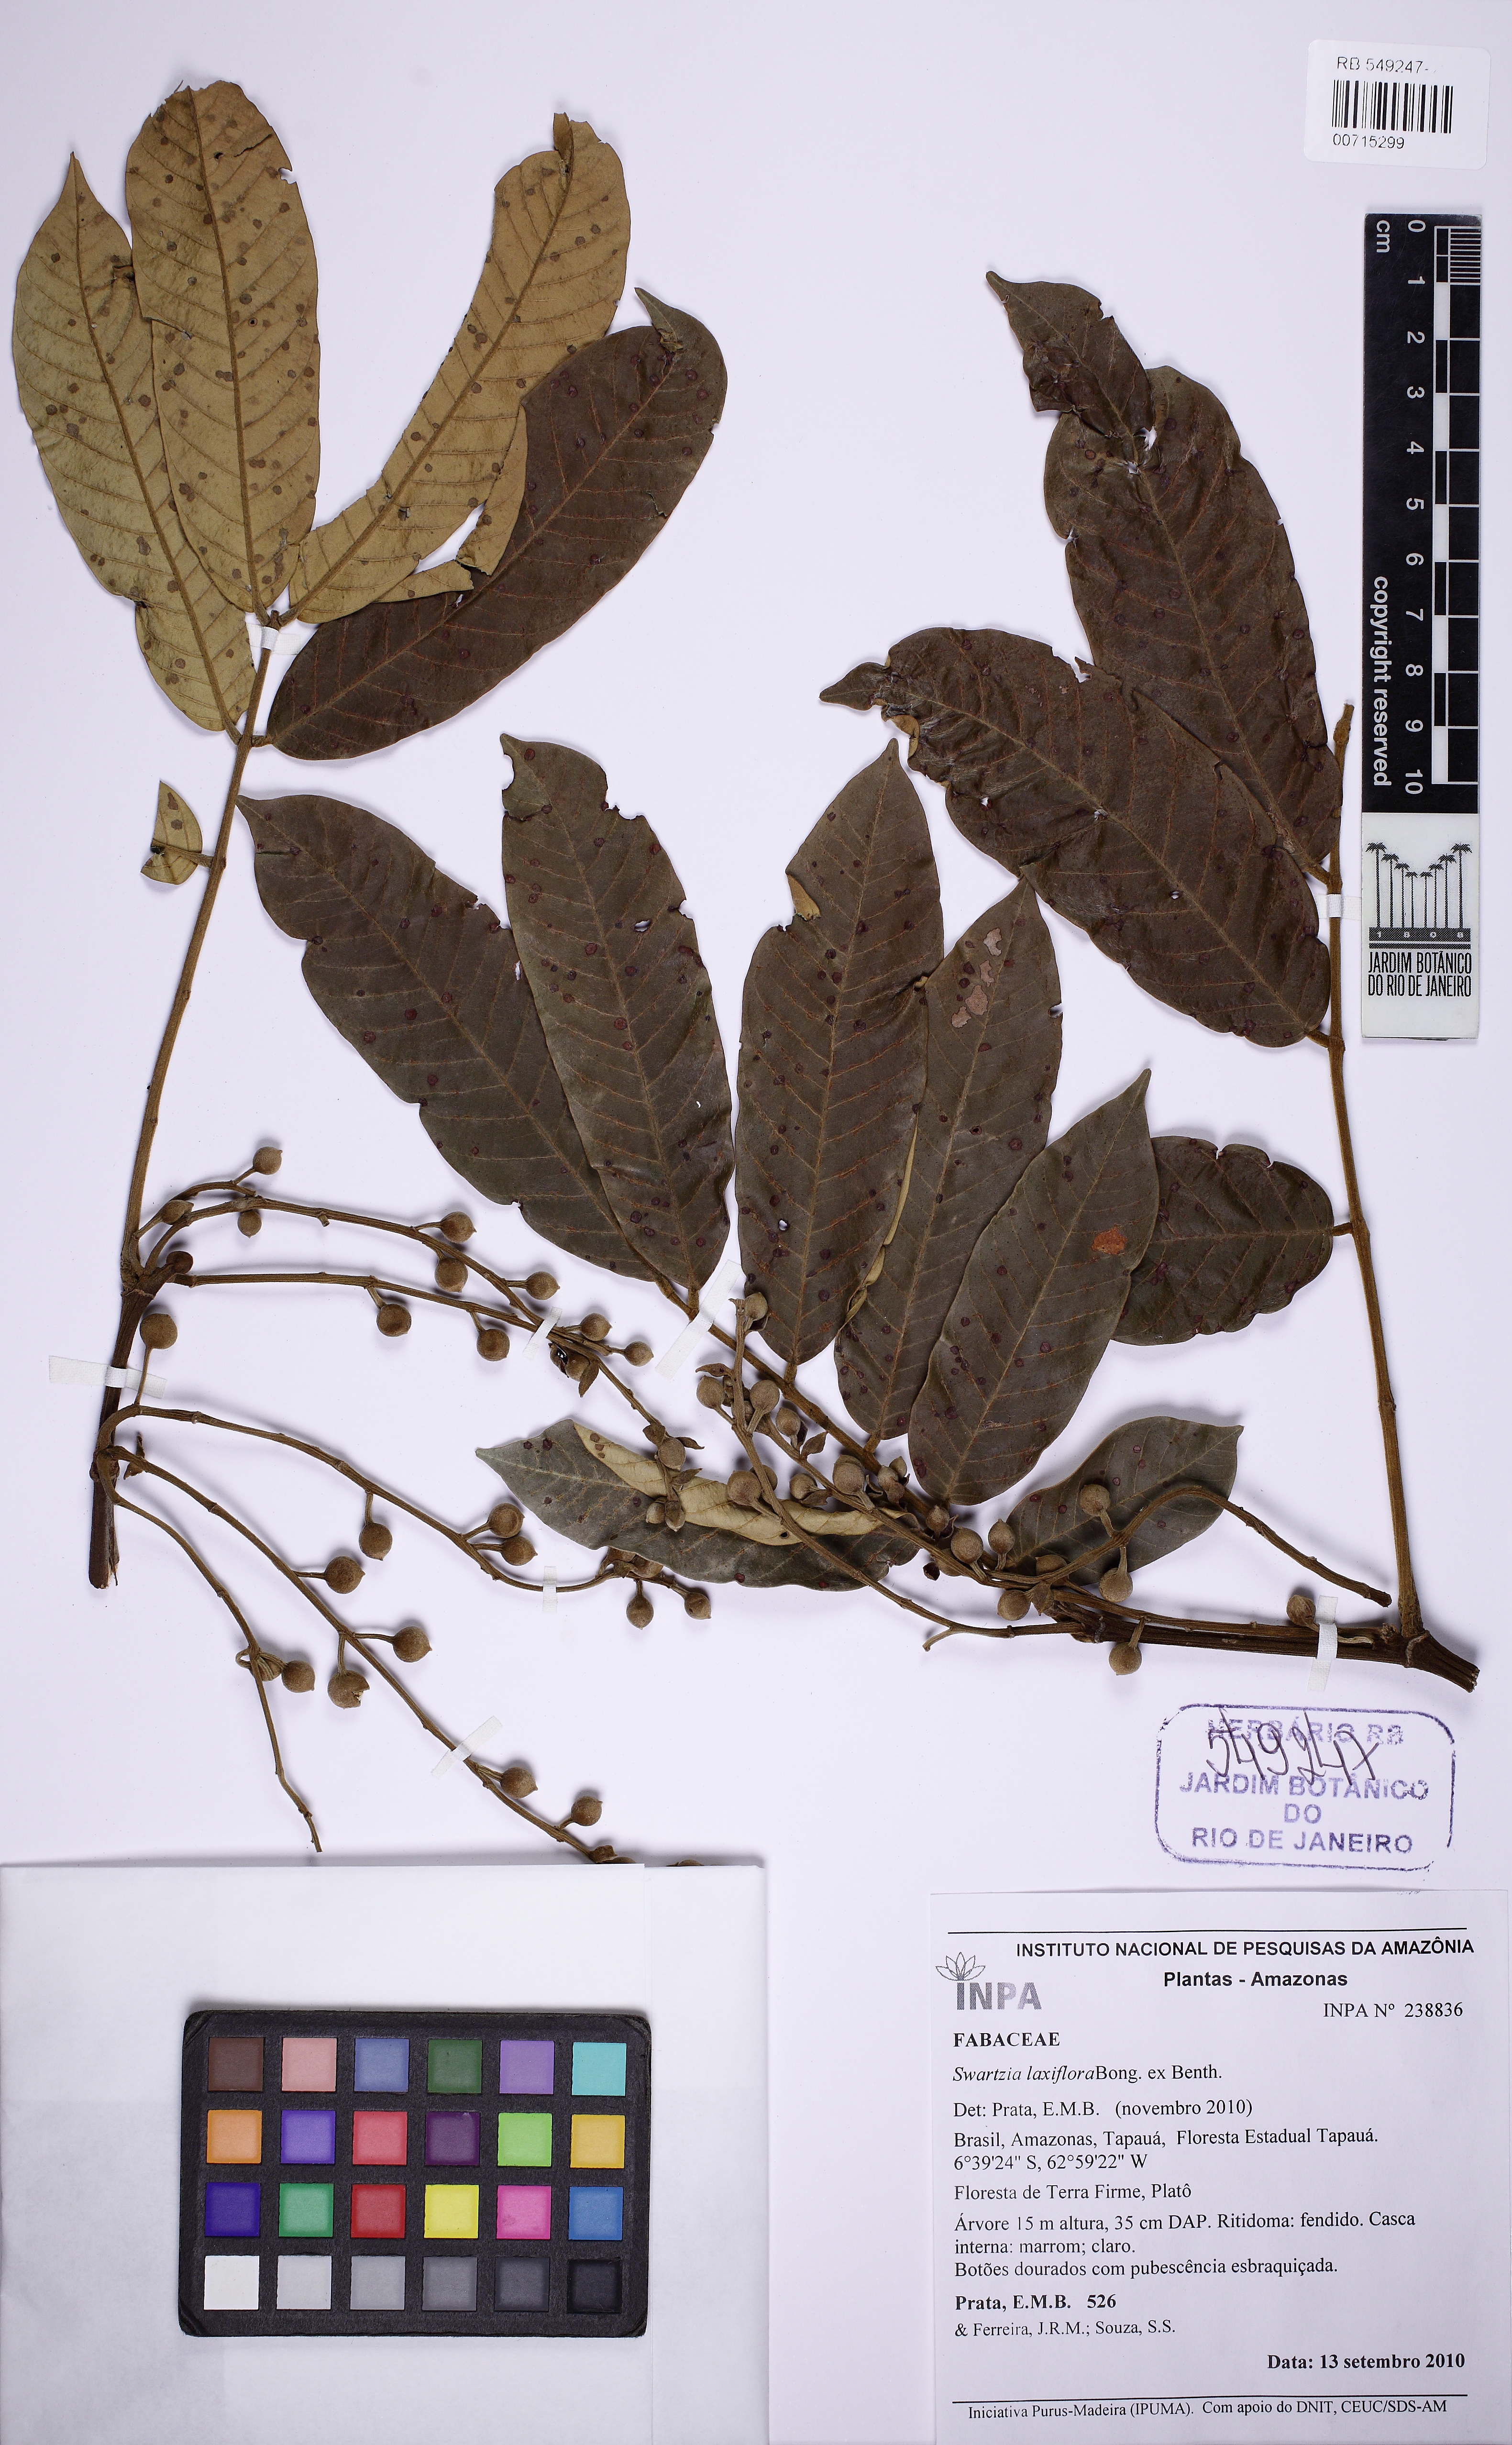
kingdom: Plantae
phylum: Tracheophyta
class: Magnoliopsida
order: Fabales
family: Fabaceae
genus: Swartzia
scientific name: Swartzia laxiflora
